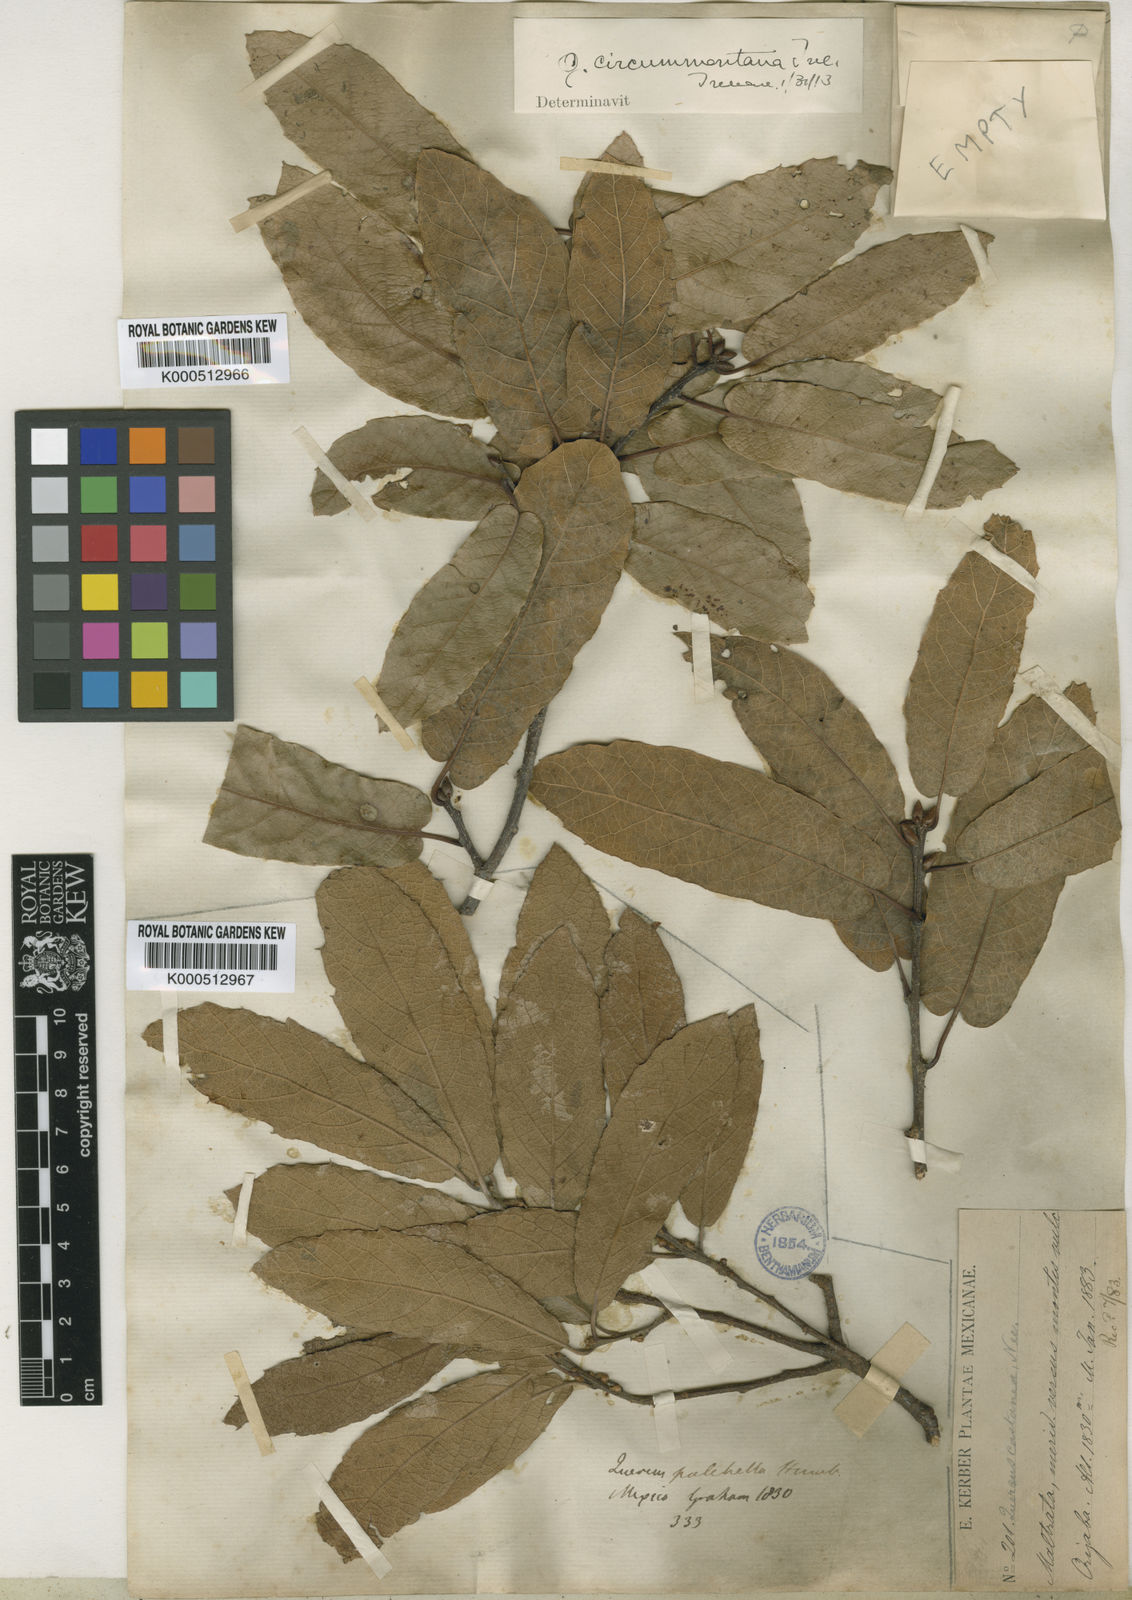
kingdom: Plantae
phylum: Tracheophyta
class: Magnoliopsida
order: Fagales
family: Fagaceae
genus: Quercus
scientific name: Quercus castanea
